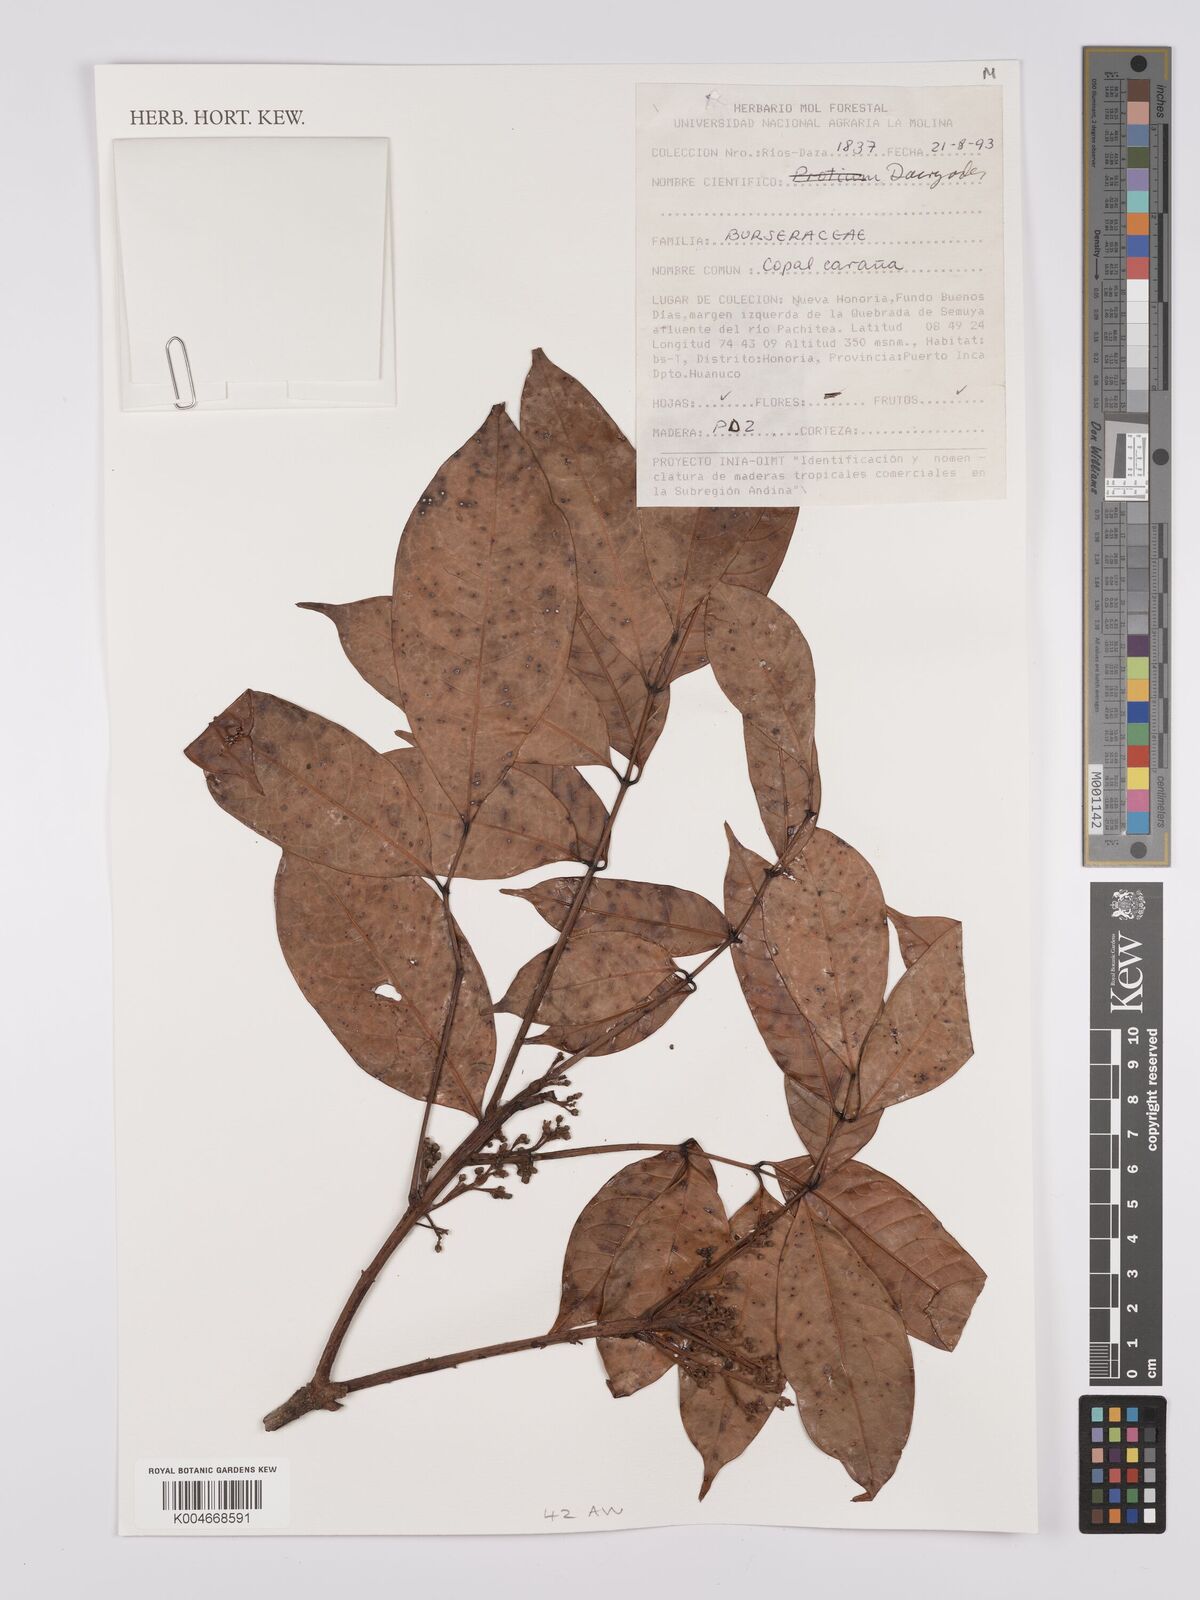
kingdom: Plantae
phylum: Tracheophyta
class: Magnoliopsida
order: Sapindales
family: Burseraceae
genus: Dacryodes
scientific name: Dacryodes
